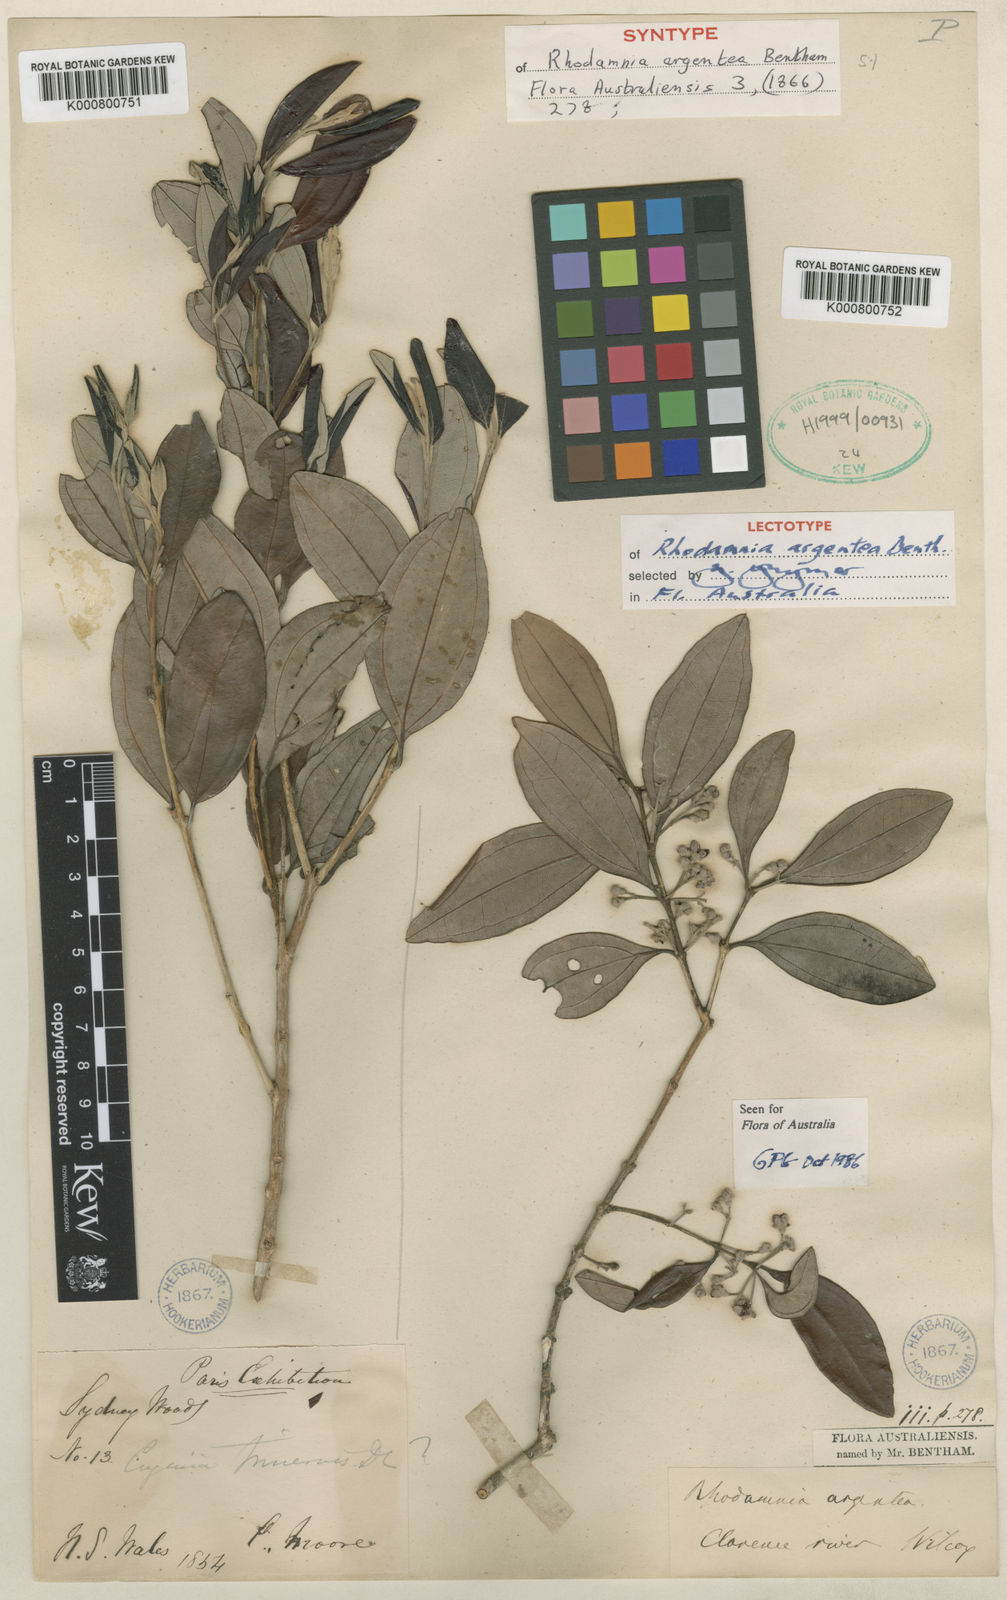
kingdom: Plantae
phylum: Tracheophyta
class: Magnoliopsida
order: Myrtales
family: Myrtaceae
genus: Rhodamnia
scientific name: Rhodamnia argentea
